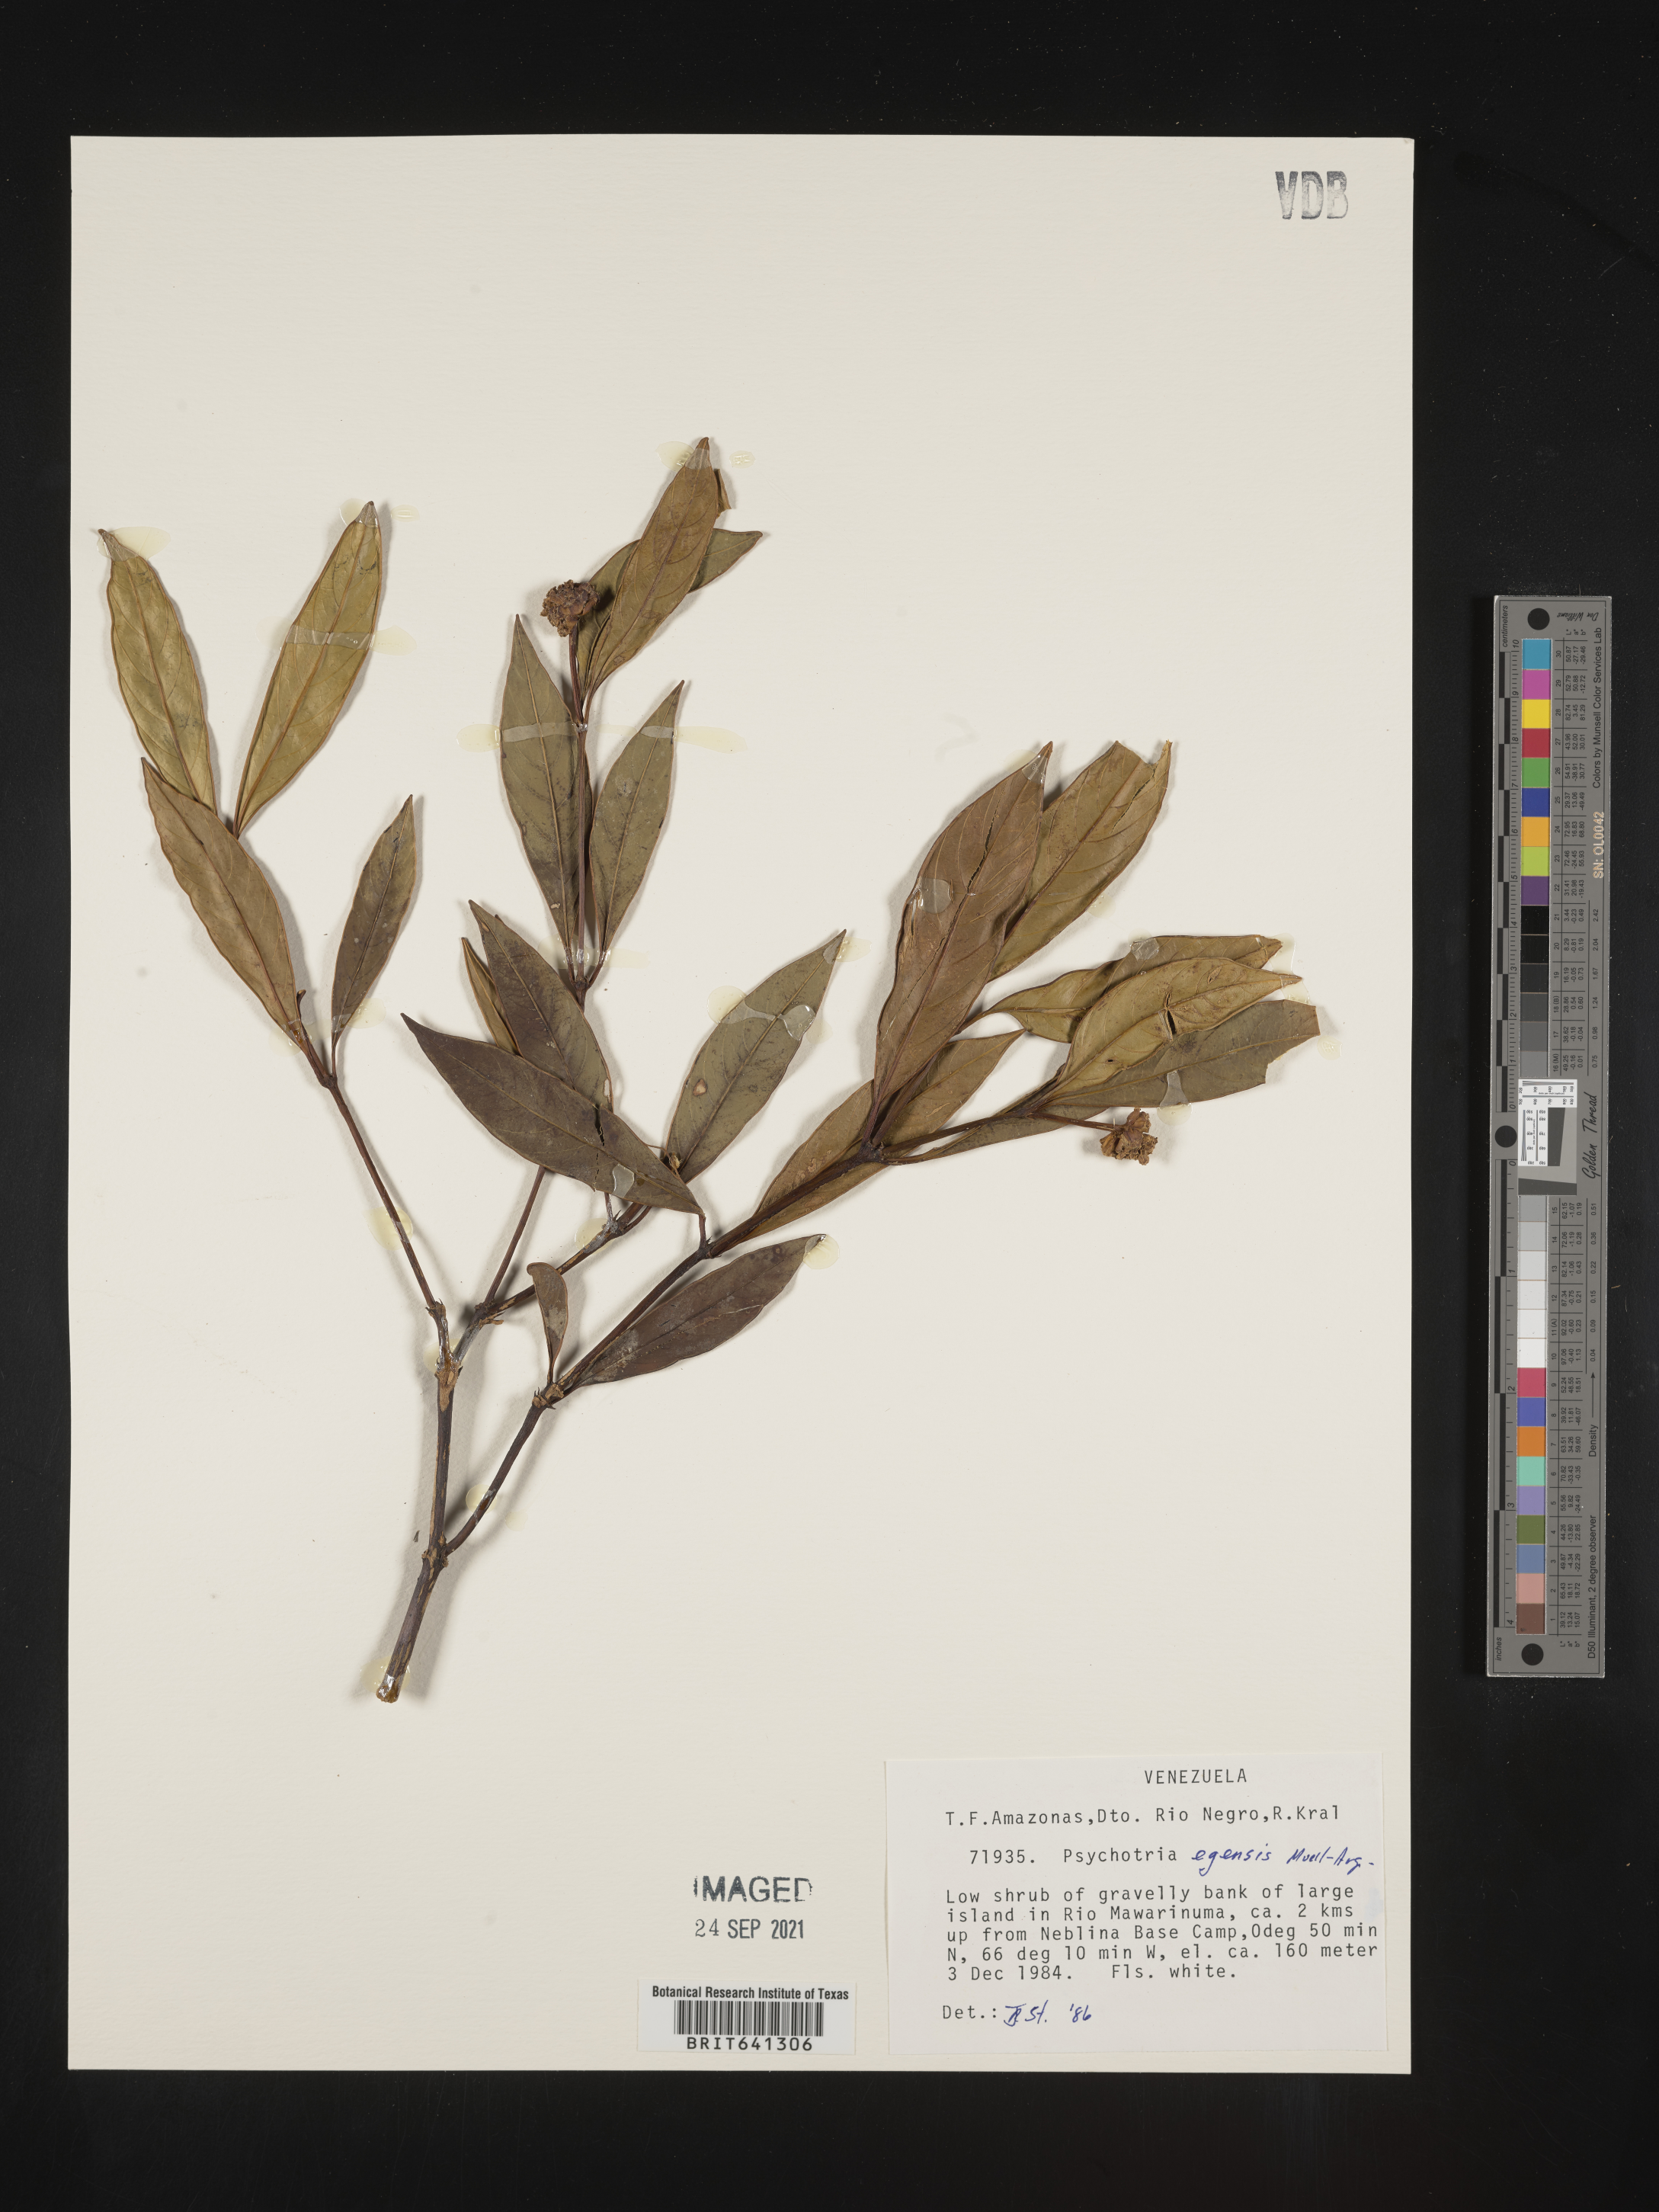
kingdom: Plantae
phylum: Tracheophyta
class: Magnoliopsida
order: Gentianales
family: Rubiaceae
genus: Psychotria
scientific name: Psychotria
